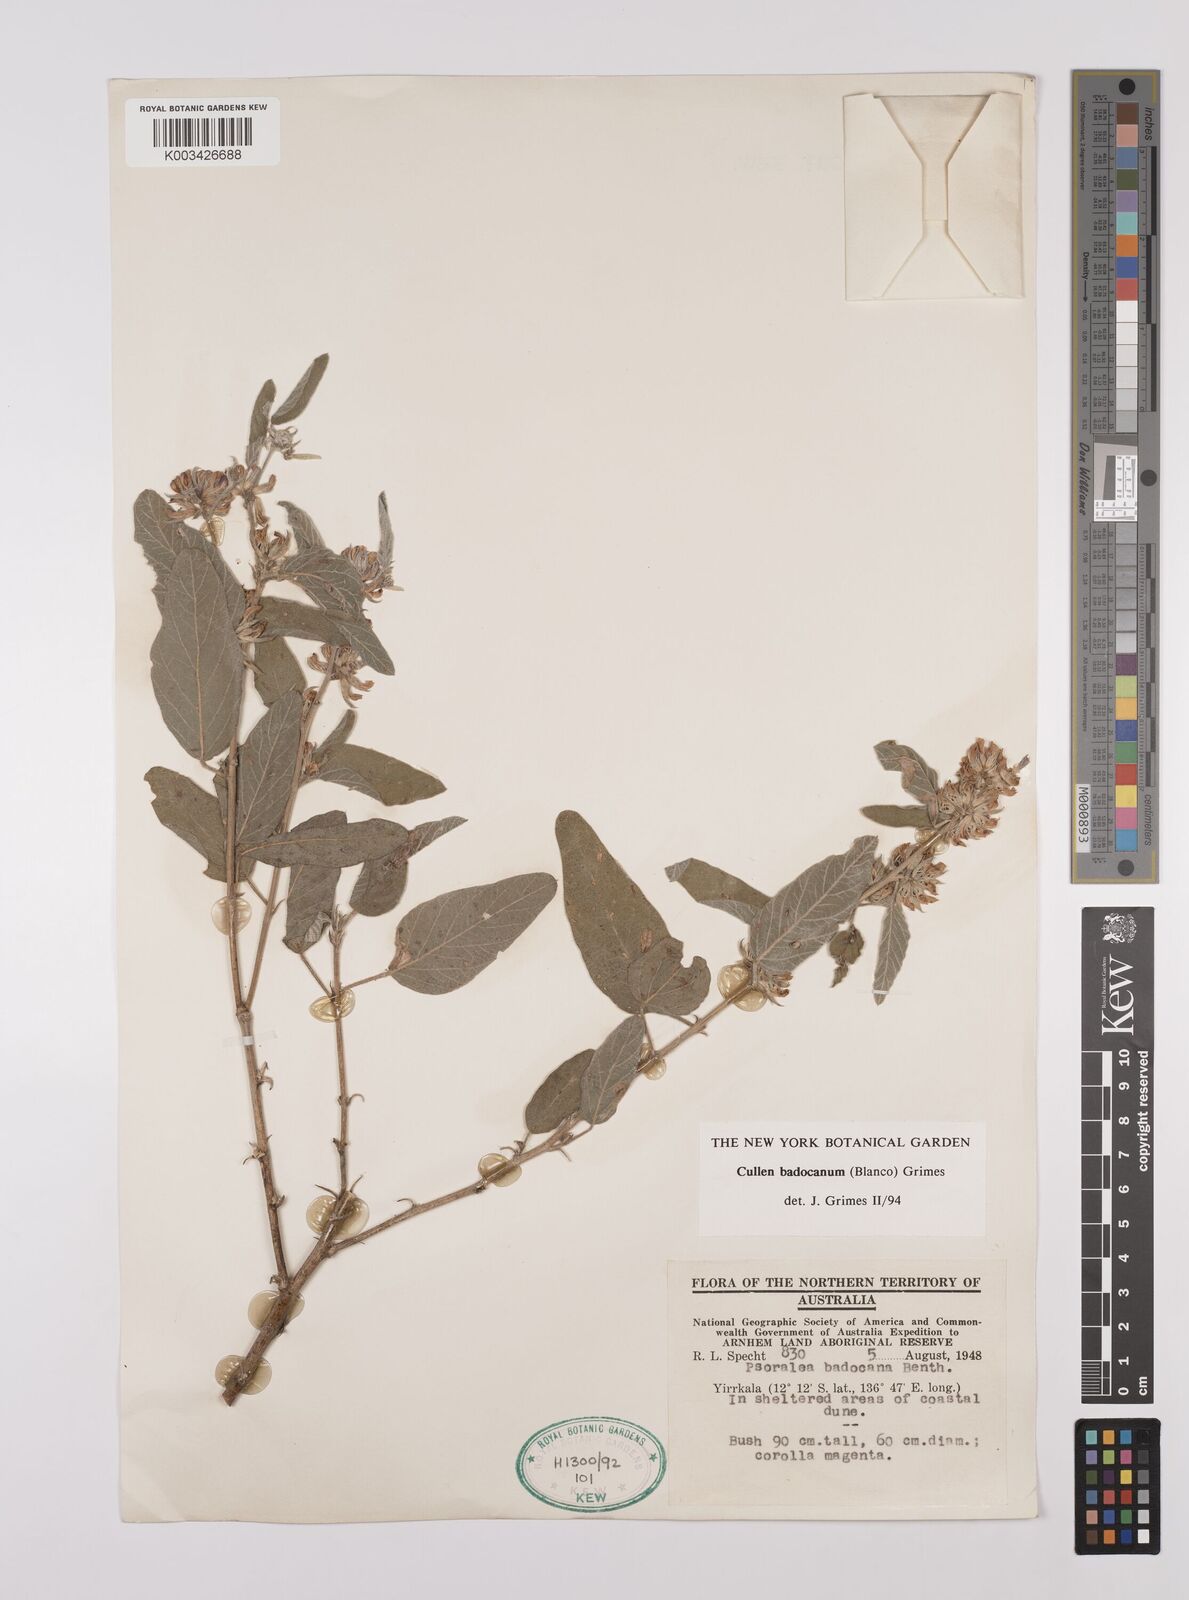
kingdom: Plantae
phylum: Tracheophyta
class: Magnoliopsida
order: Fabales
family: Fabaceae
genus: Cullen
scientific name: Cullen badocanum
